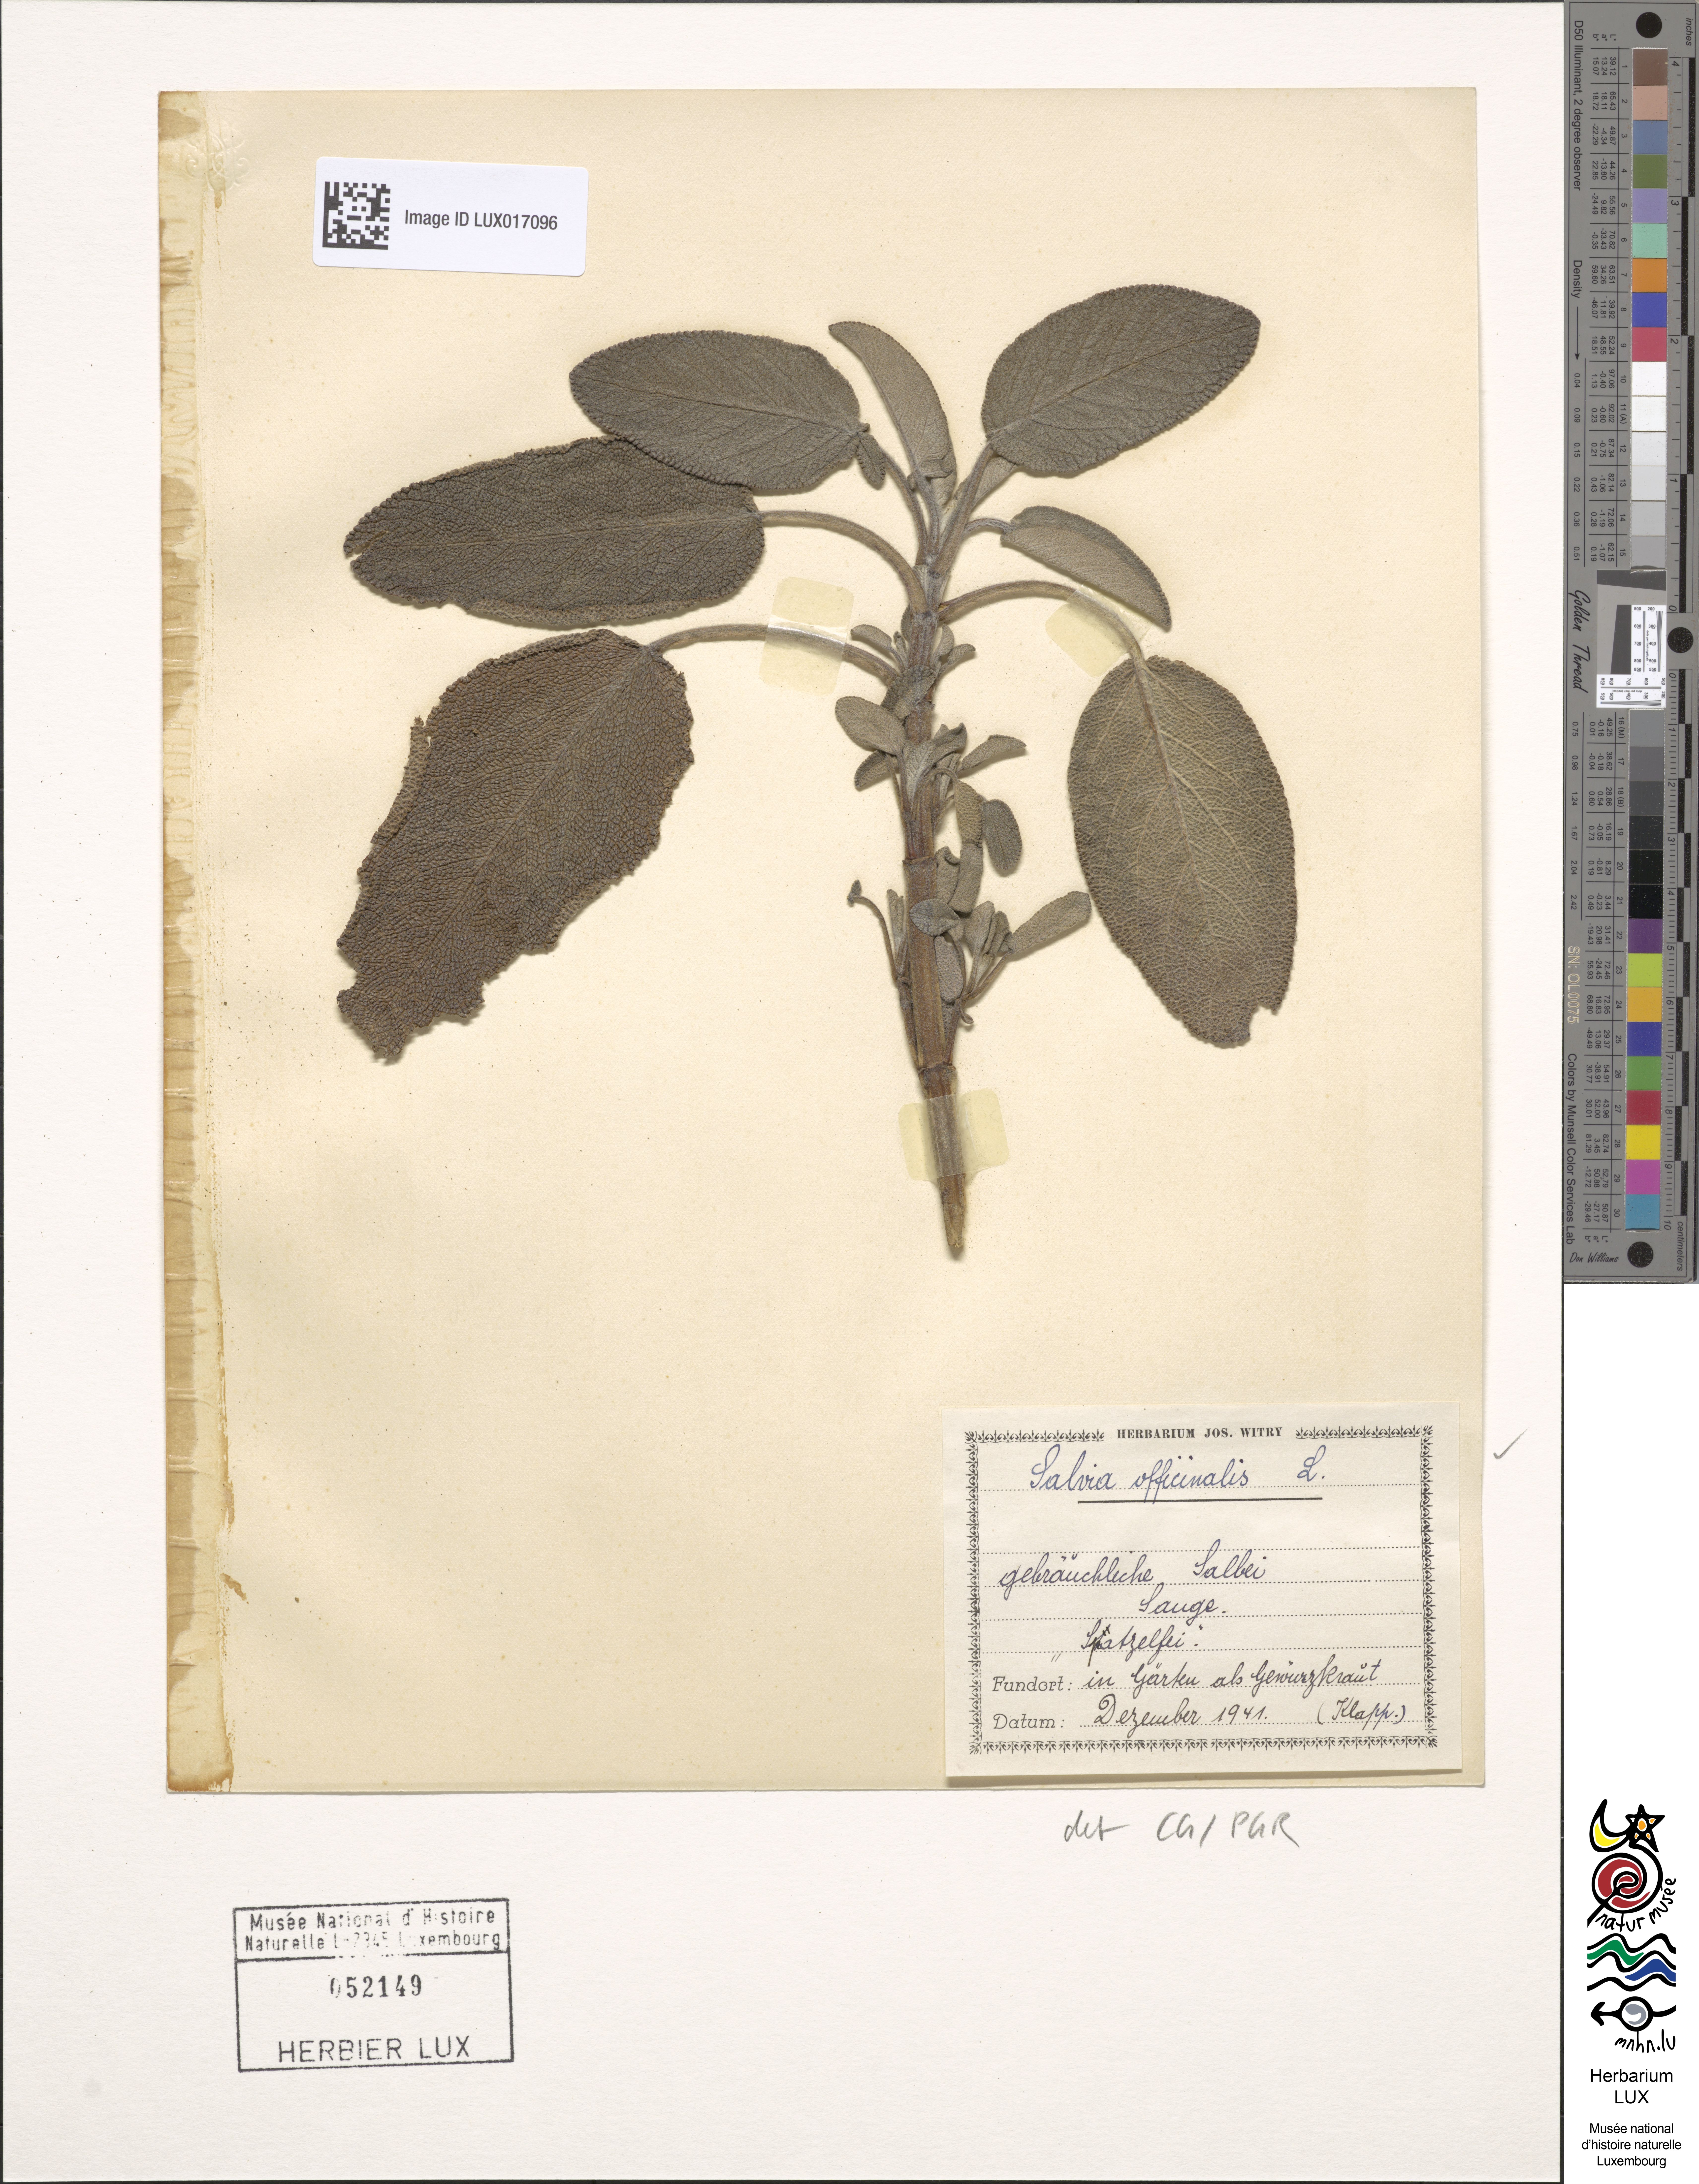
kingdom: Plantae
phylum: Tracheophyta
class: Magnoliopsida
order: Lamiales
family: Lamiaceae
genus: Salvia
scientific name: Salvia officinalis
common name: Sage
